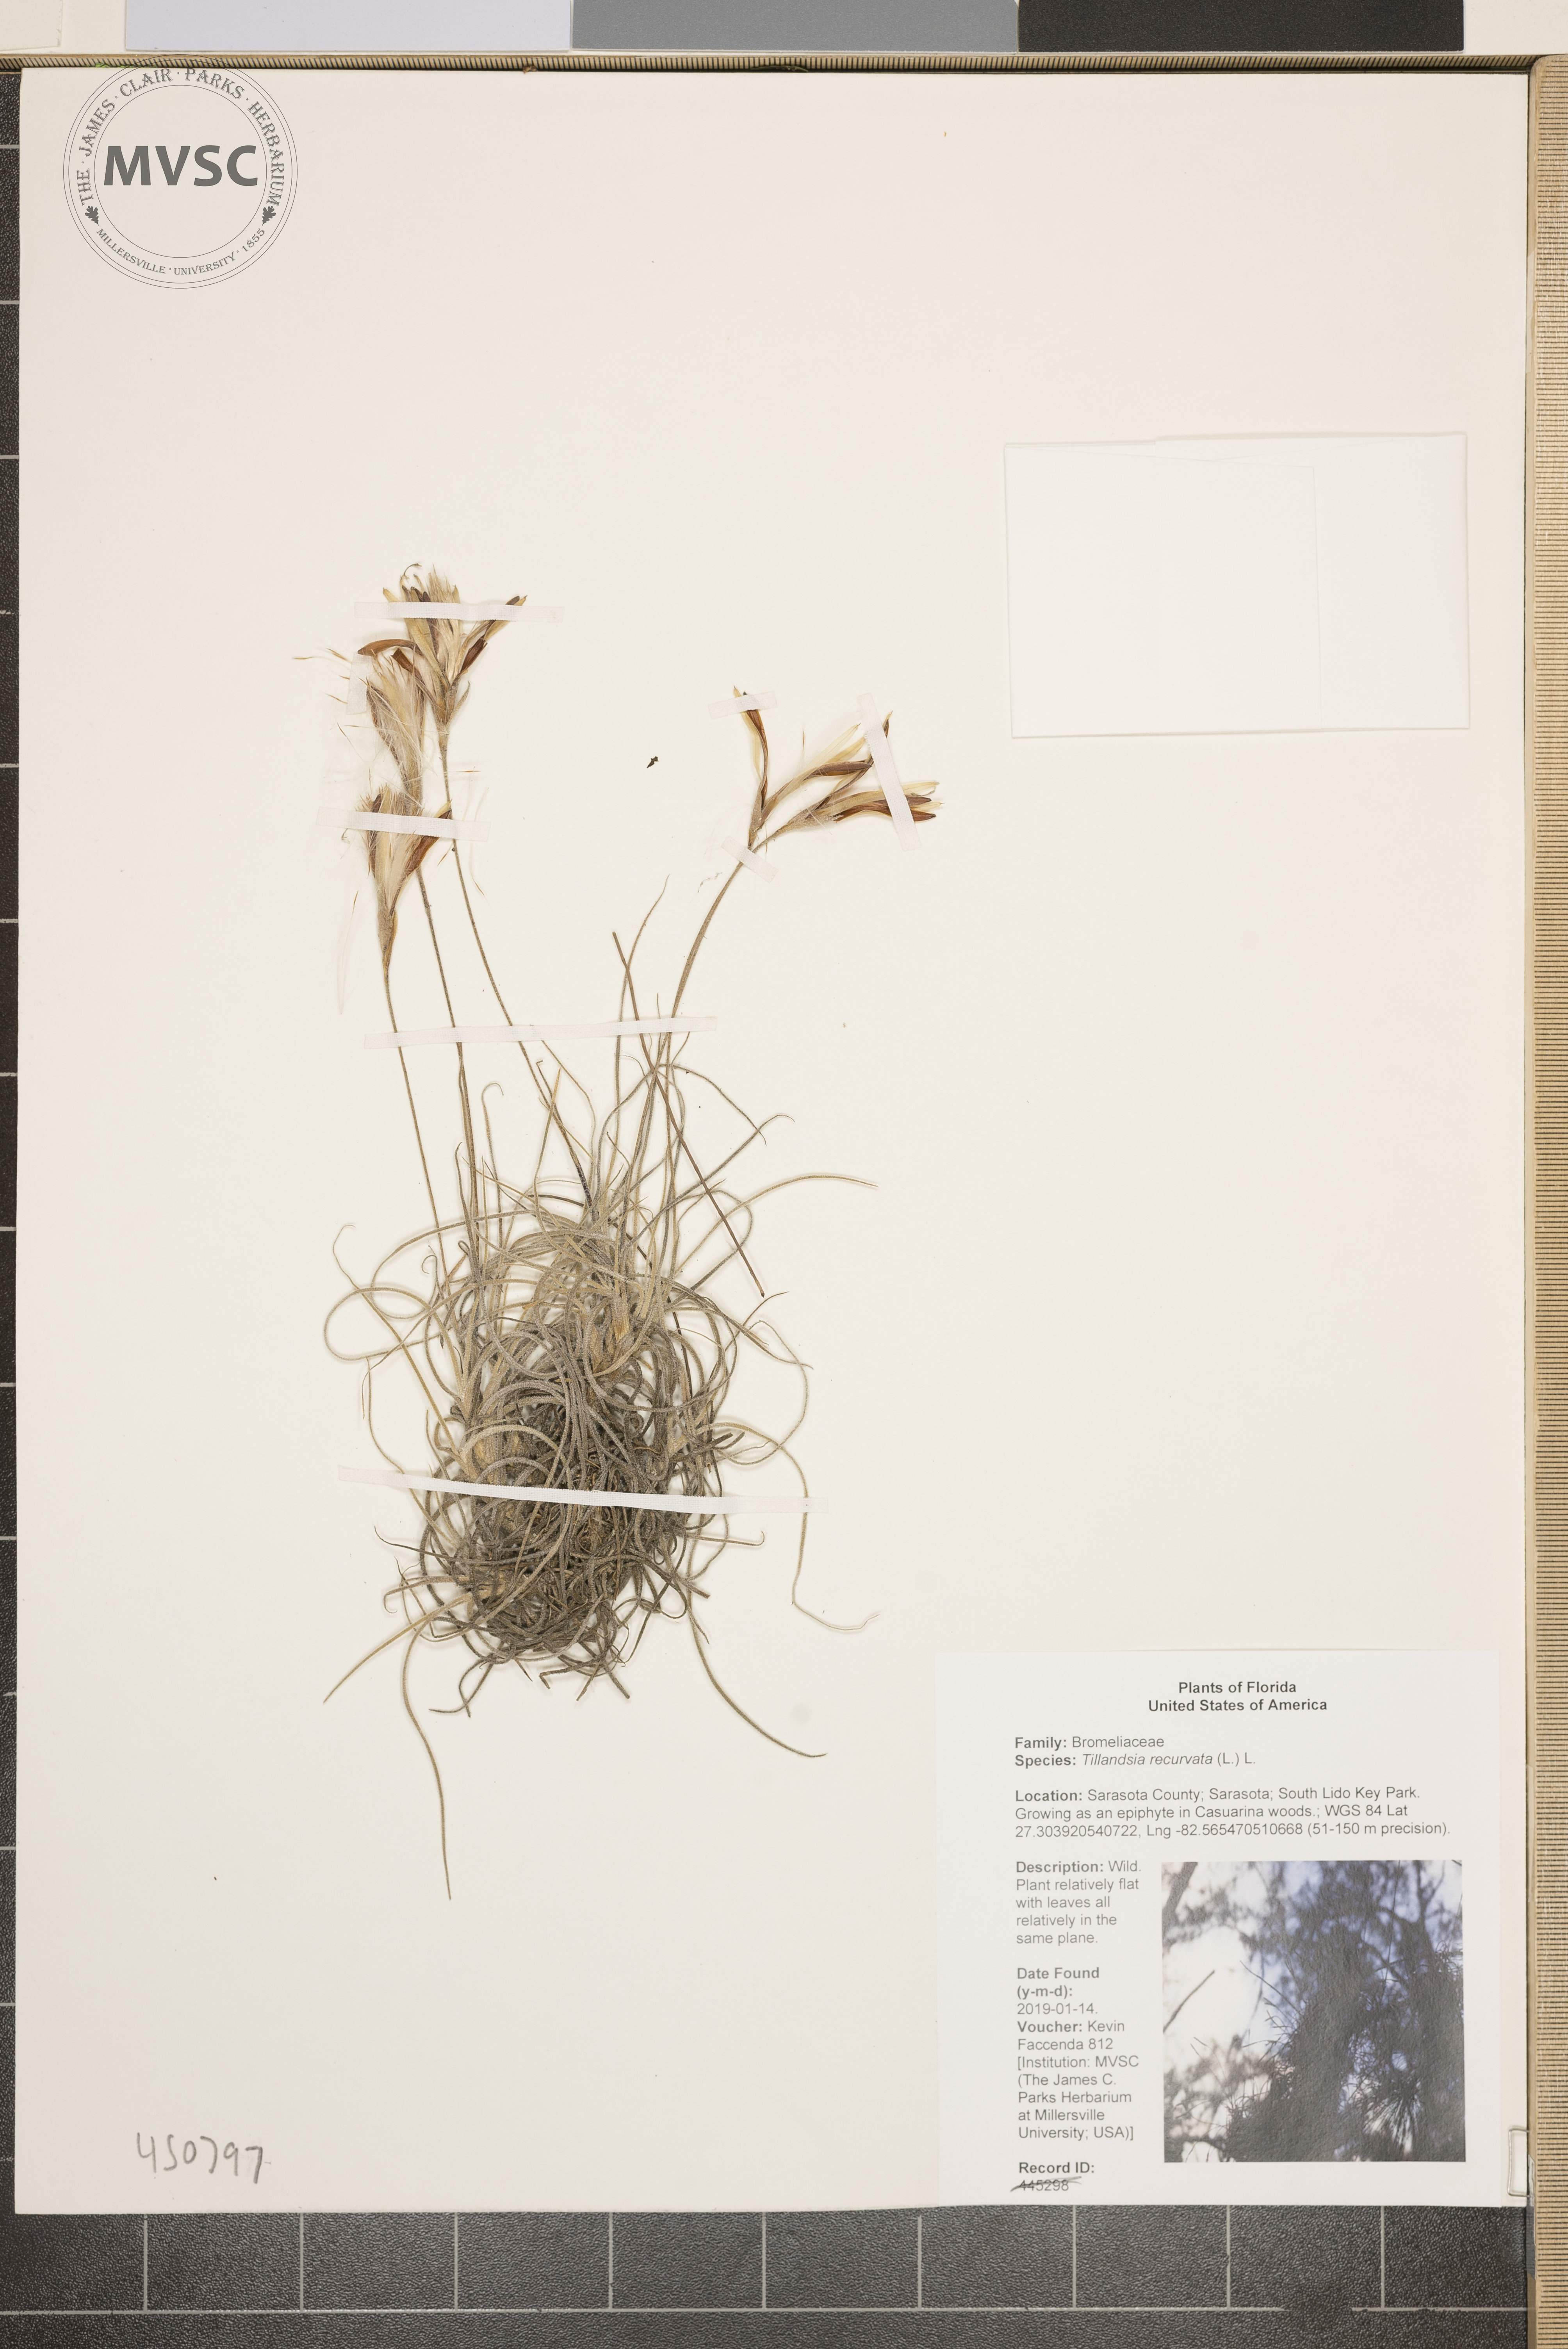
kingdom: Plantae
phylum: Tracheophyta
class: Liliopsida
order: Poales
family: Bromeliaceae
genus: Tillandsia
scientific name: Tillandsia recurvata
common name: Small ballmoss
